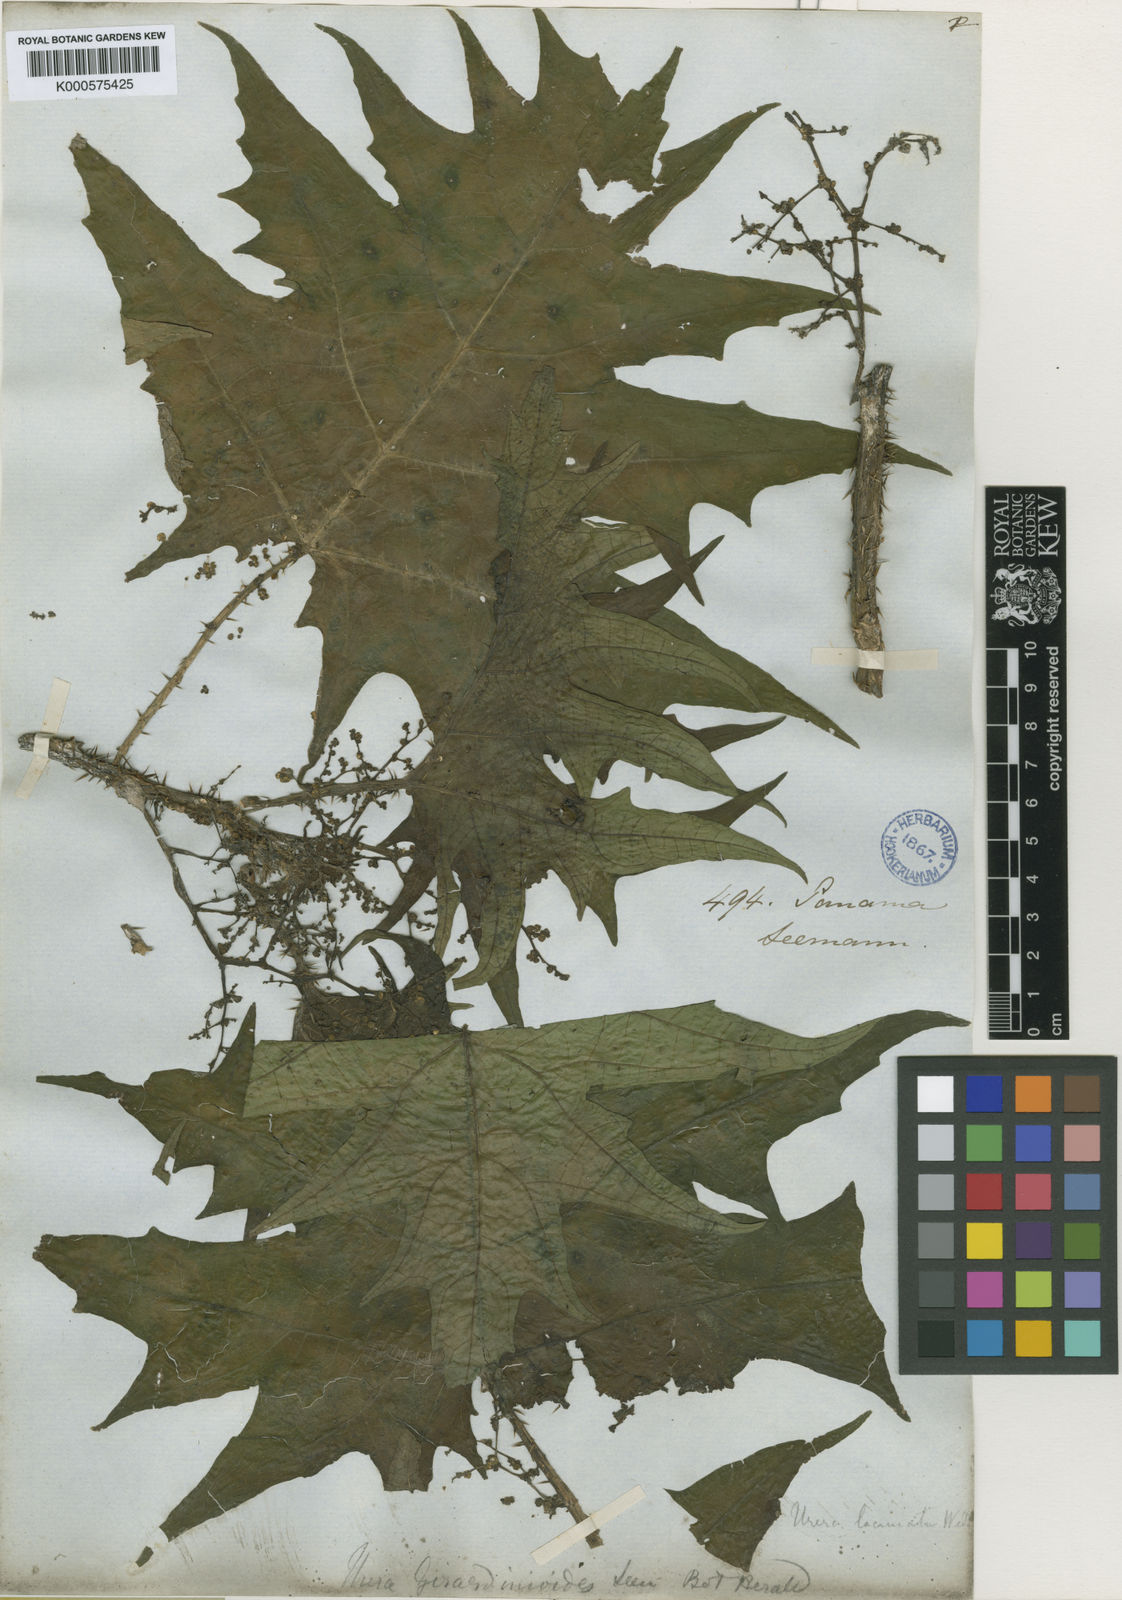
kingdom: Plantae
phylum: Tracheophyta
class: Magnoliopsida
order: Rosales
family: Urticaceae
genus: Urera
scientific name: Urera laciniata
